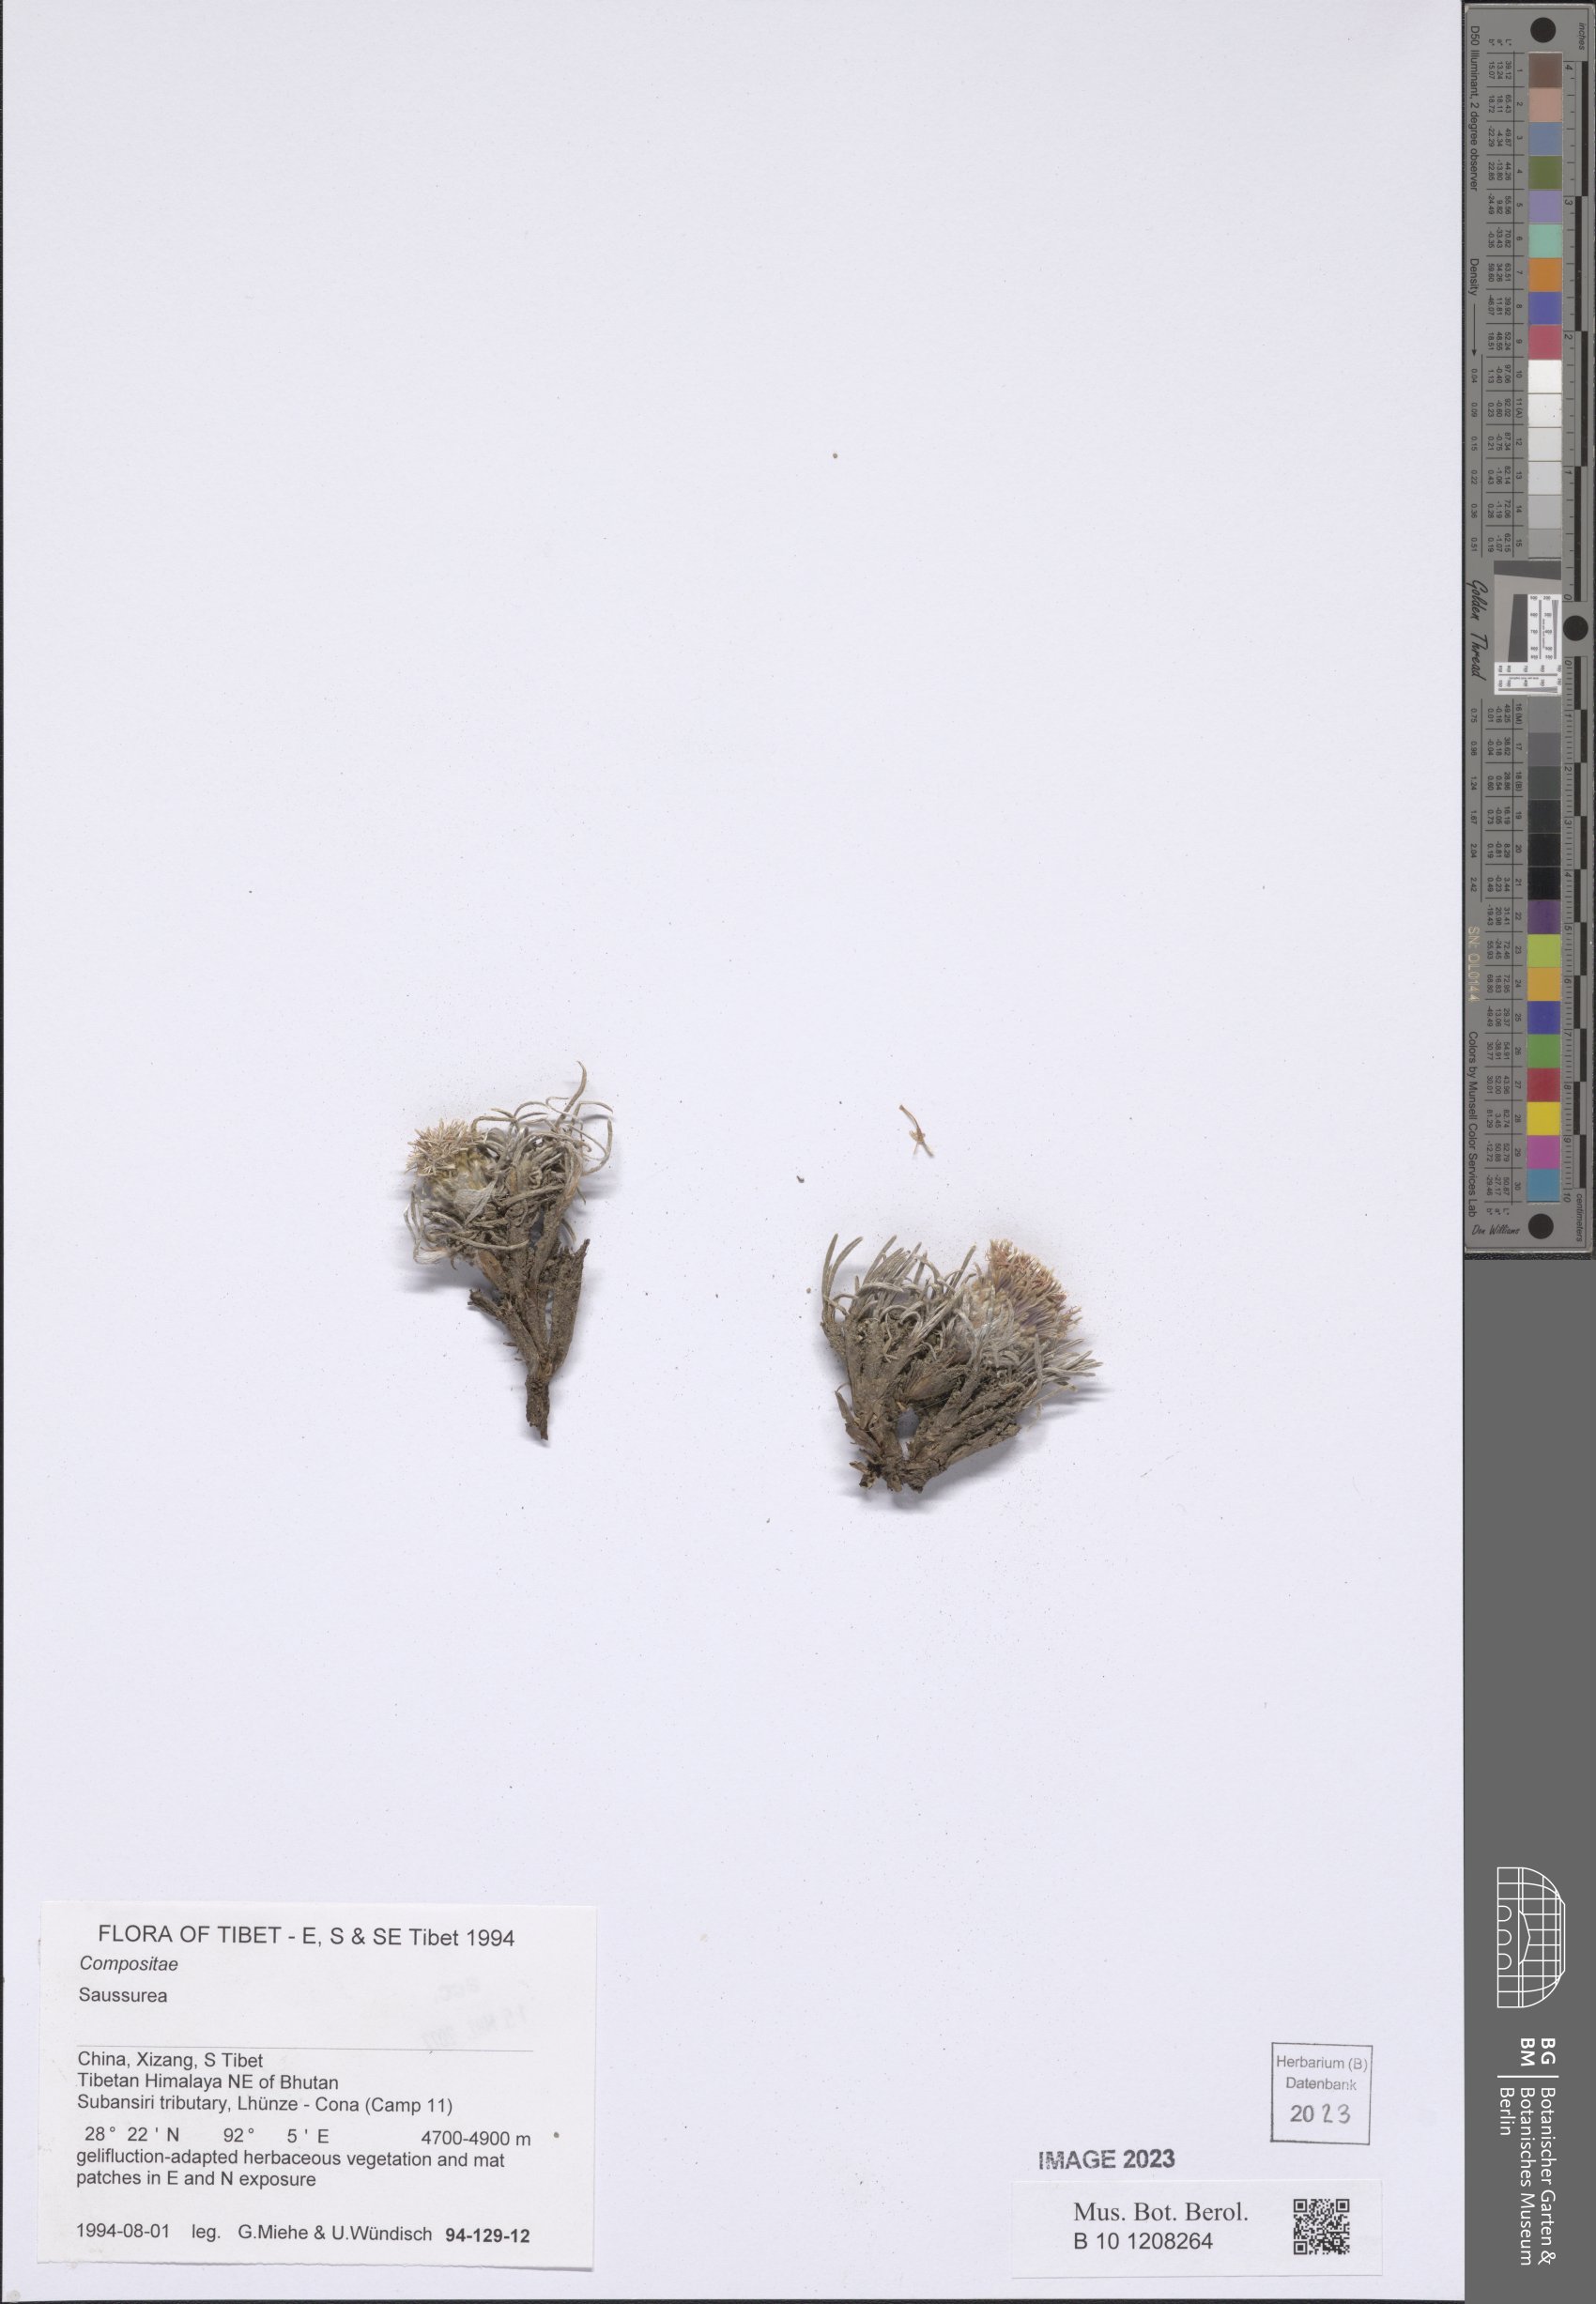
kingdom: Plantae
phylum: Tracheophyta
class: Magnoliopsida
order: Asterales
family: Asteraceae
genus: Saussurea
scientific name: Saussurea
